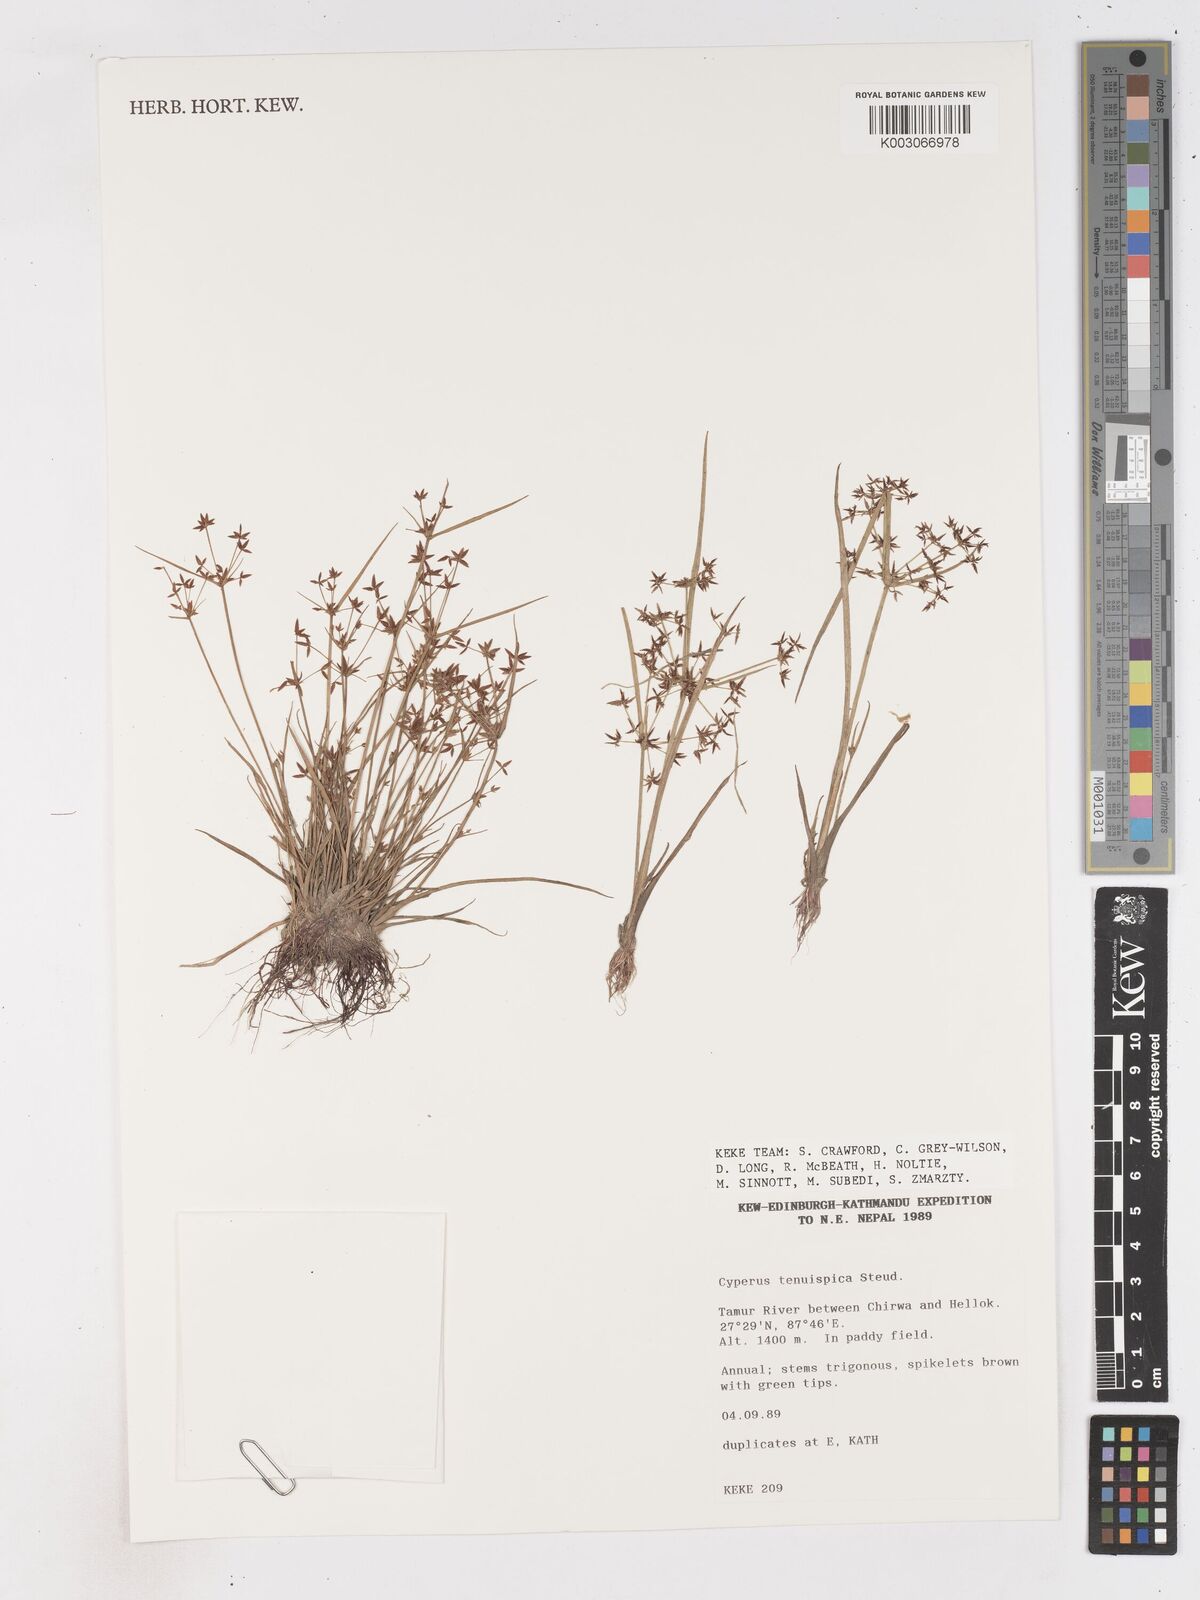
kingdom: Plantae
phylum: Tracheophyta
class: Liliopsida
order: Poales
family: Cyperaceae
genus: Cyperus
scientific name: Cyperus tenuispica
